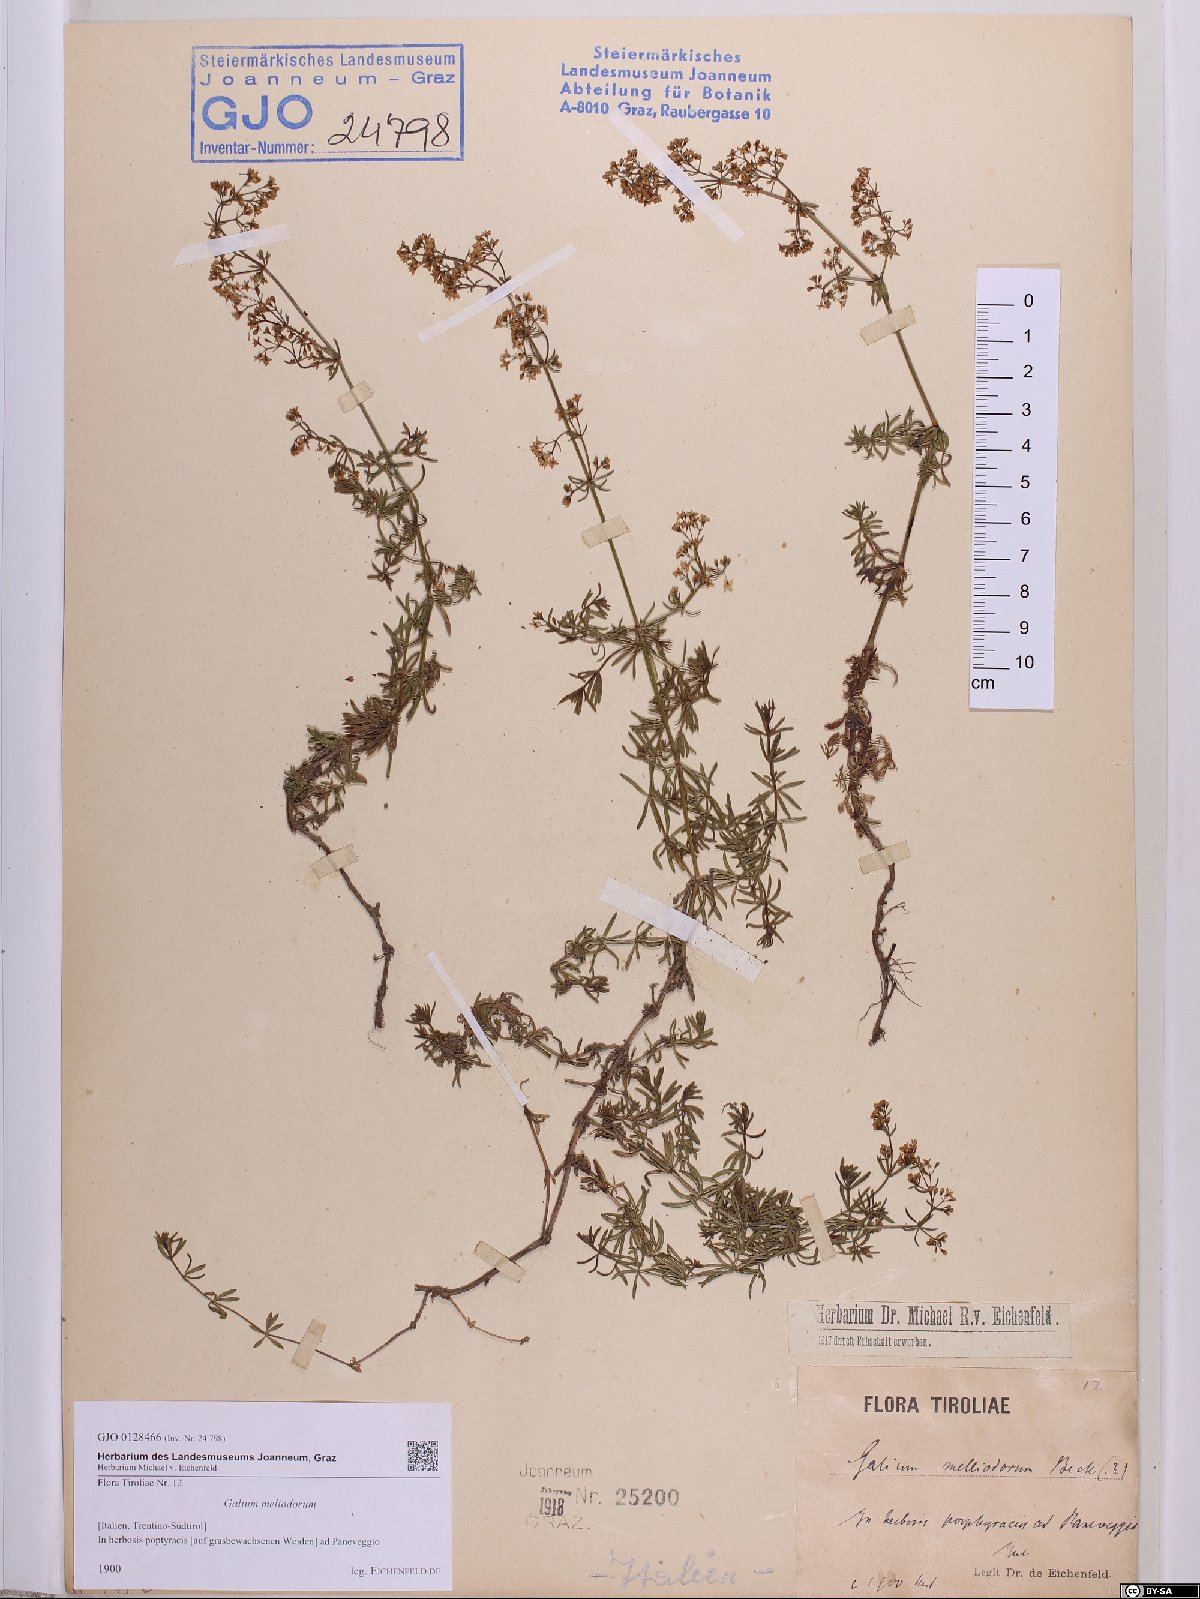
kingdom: Plantae
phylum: Tracheophyta
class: Magnoliopsida
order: Gentianales
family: Rubiaceae
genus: Galium
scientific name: Galium meliodorum
